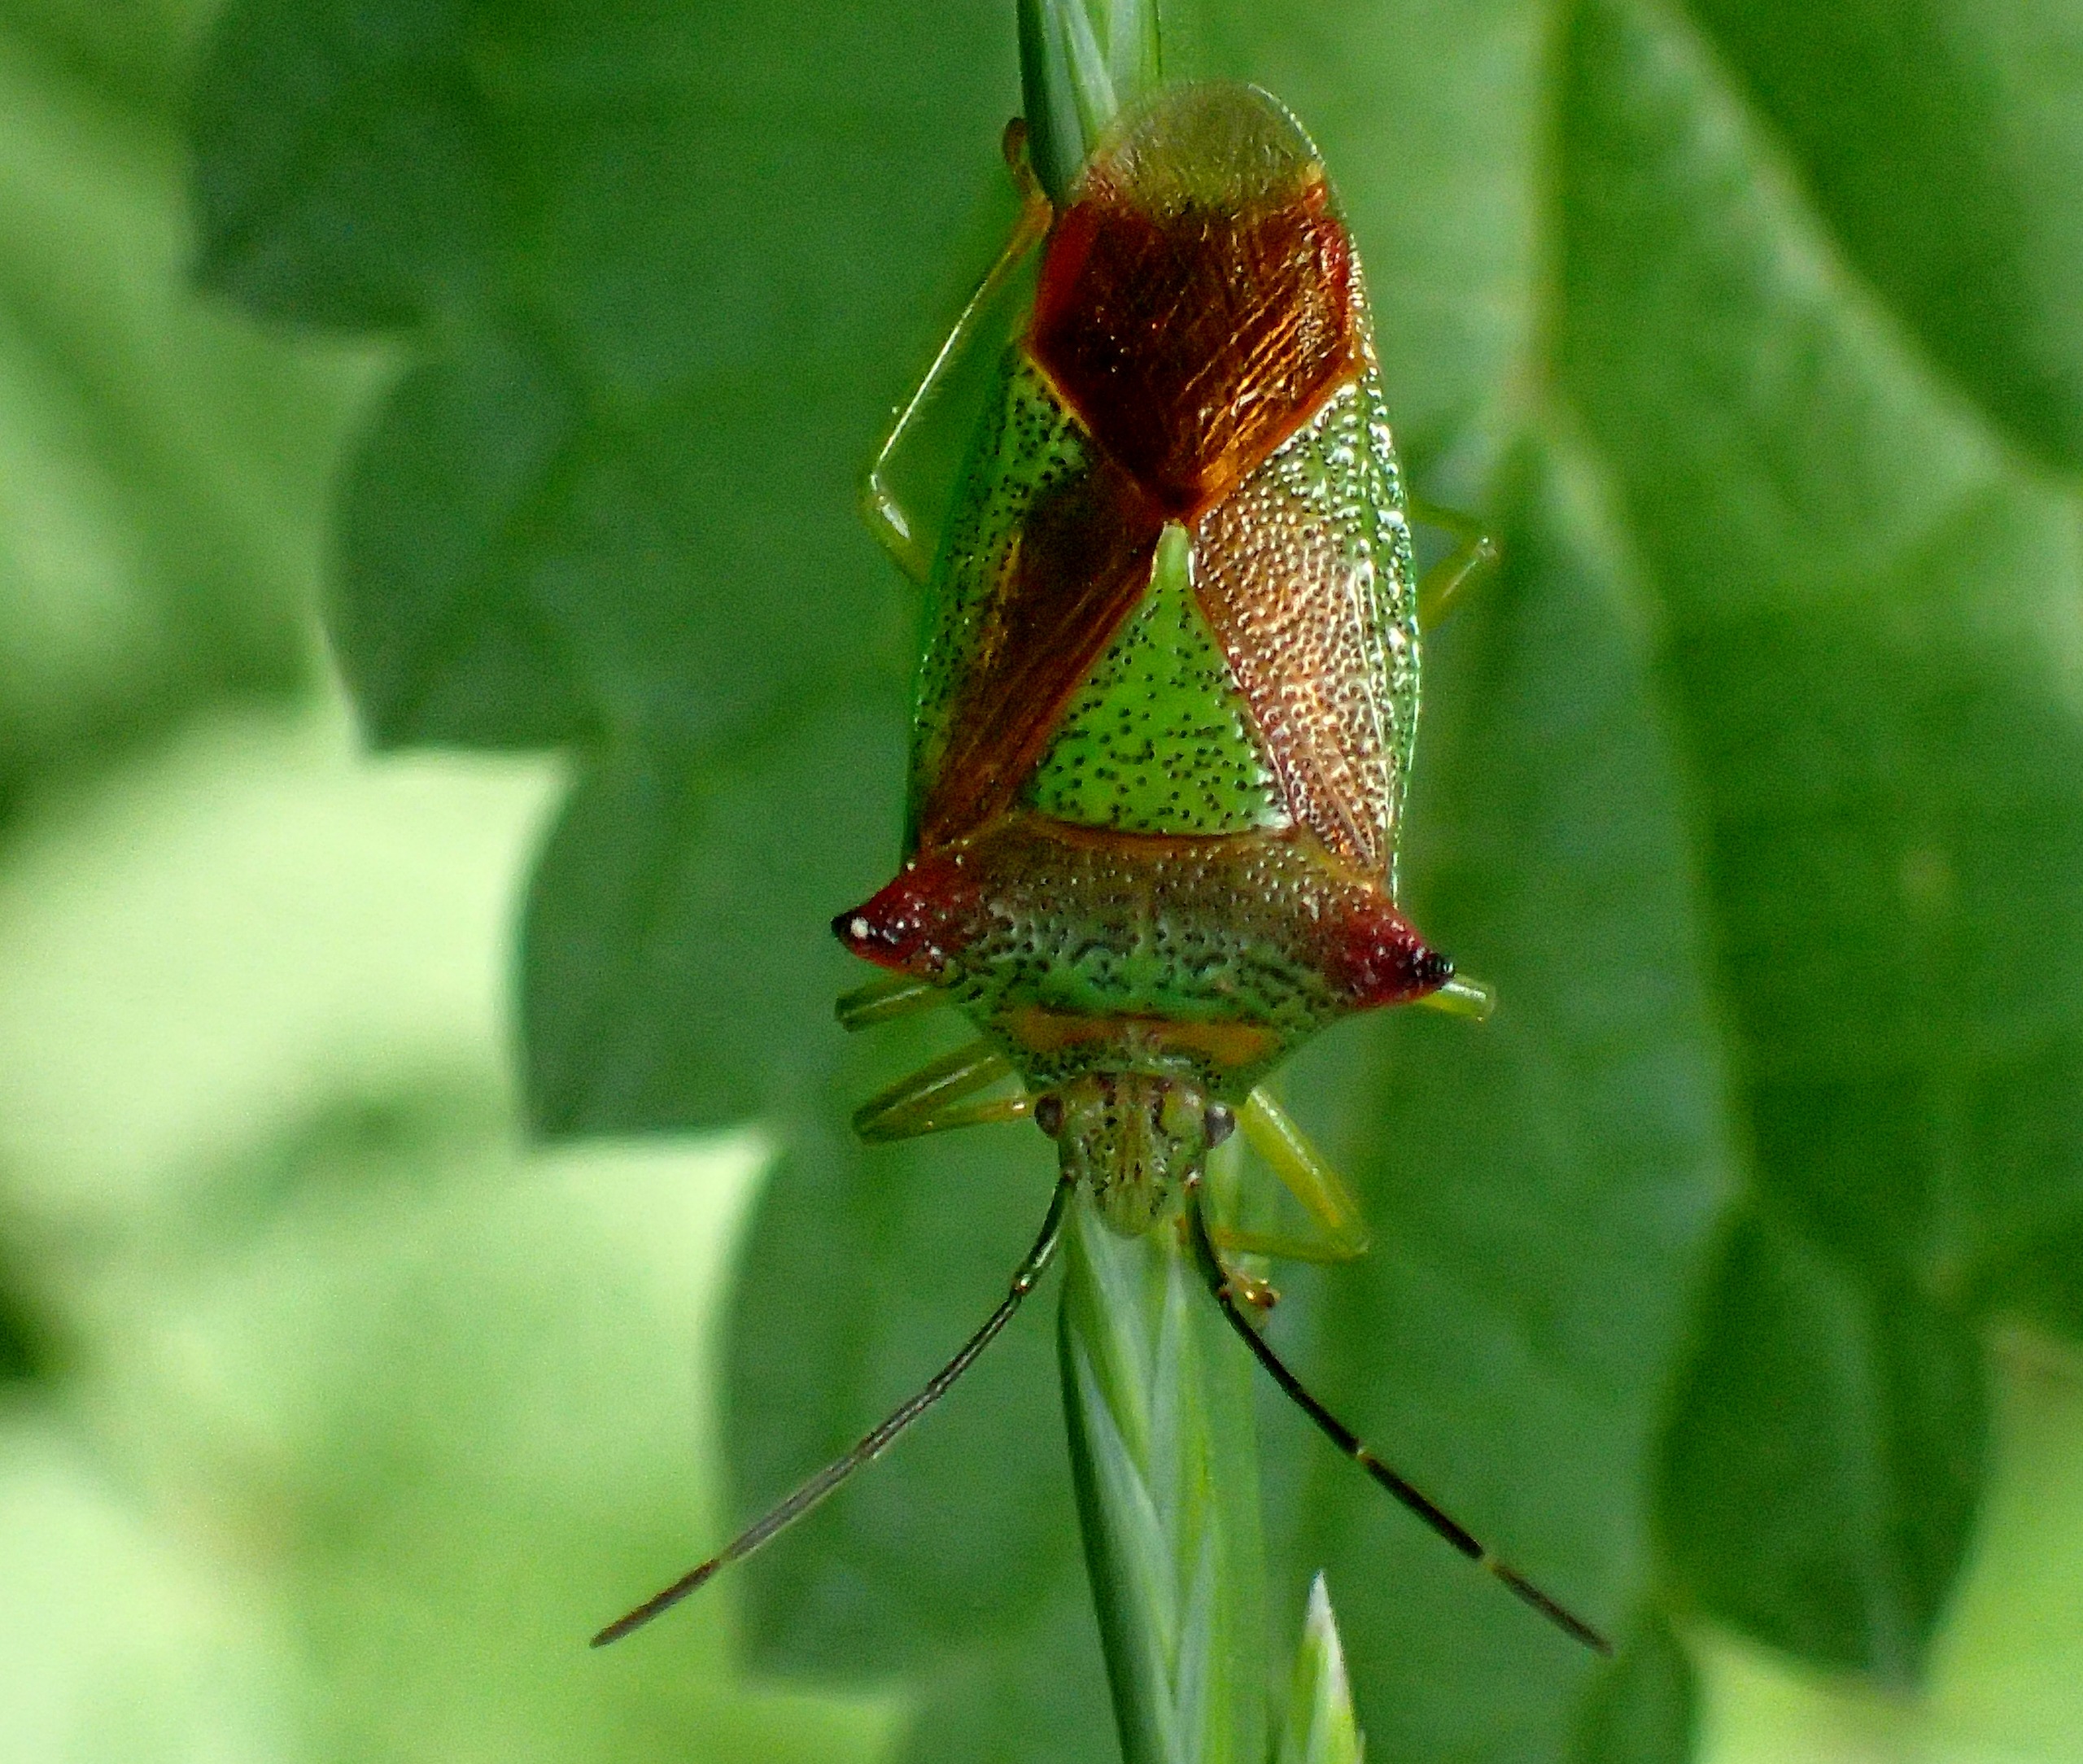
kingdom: Animalia
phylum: Arthropoda
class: Insecta
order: Hemiptera
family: Acanthosomatidae
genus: Acanthosoma
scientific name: Acanthosoma haemorrhoidale
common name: Stor løvtæge
